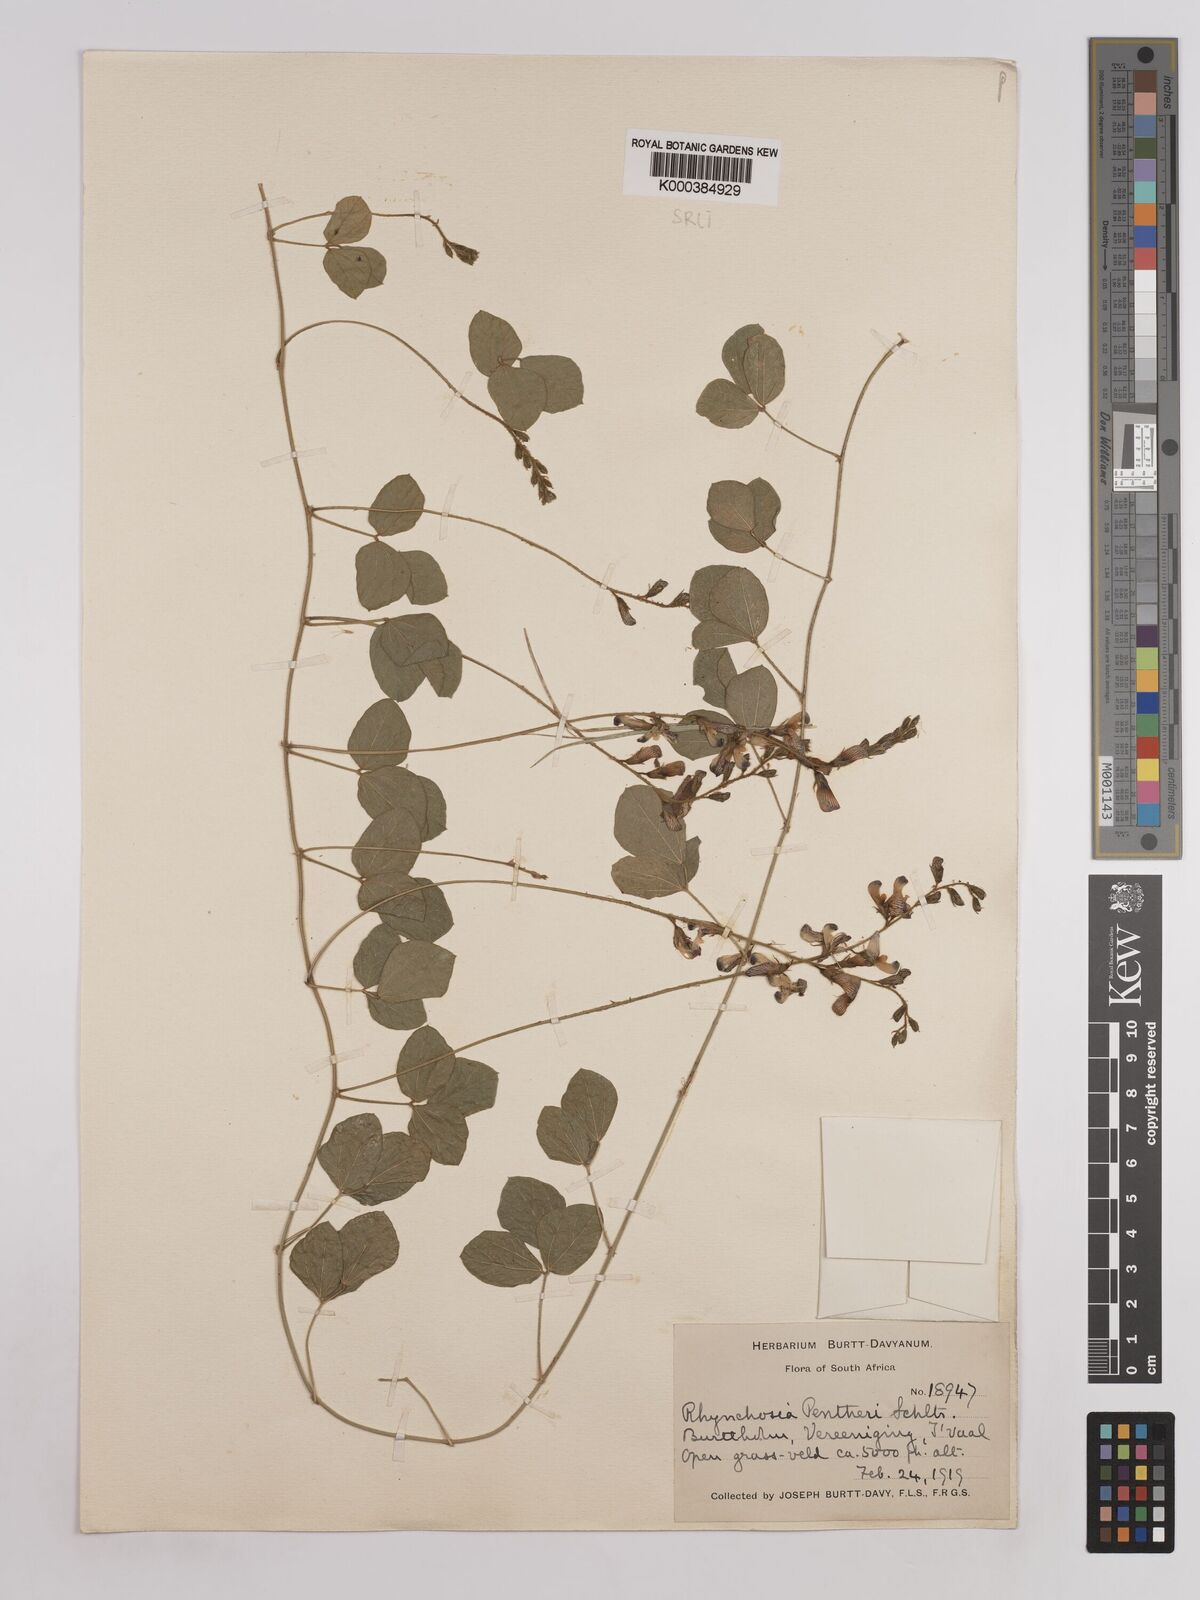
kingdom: Plantae
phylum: Tracheophyta
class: Magnoliopsida
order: Fabales
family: Fabaceae
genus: Rhynchosia
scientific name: Rhynchosia pentheri
